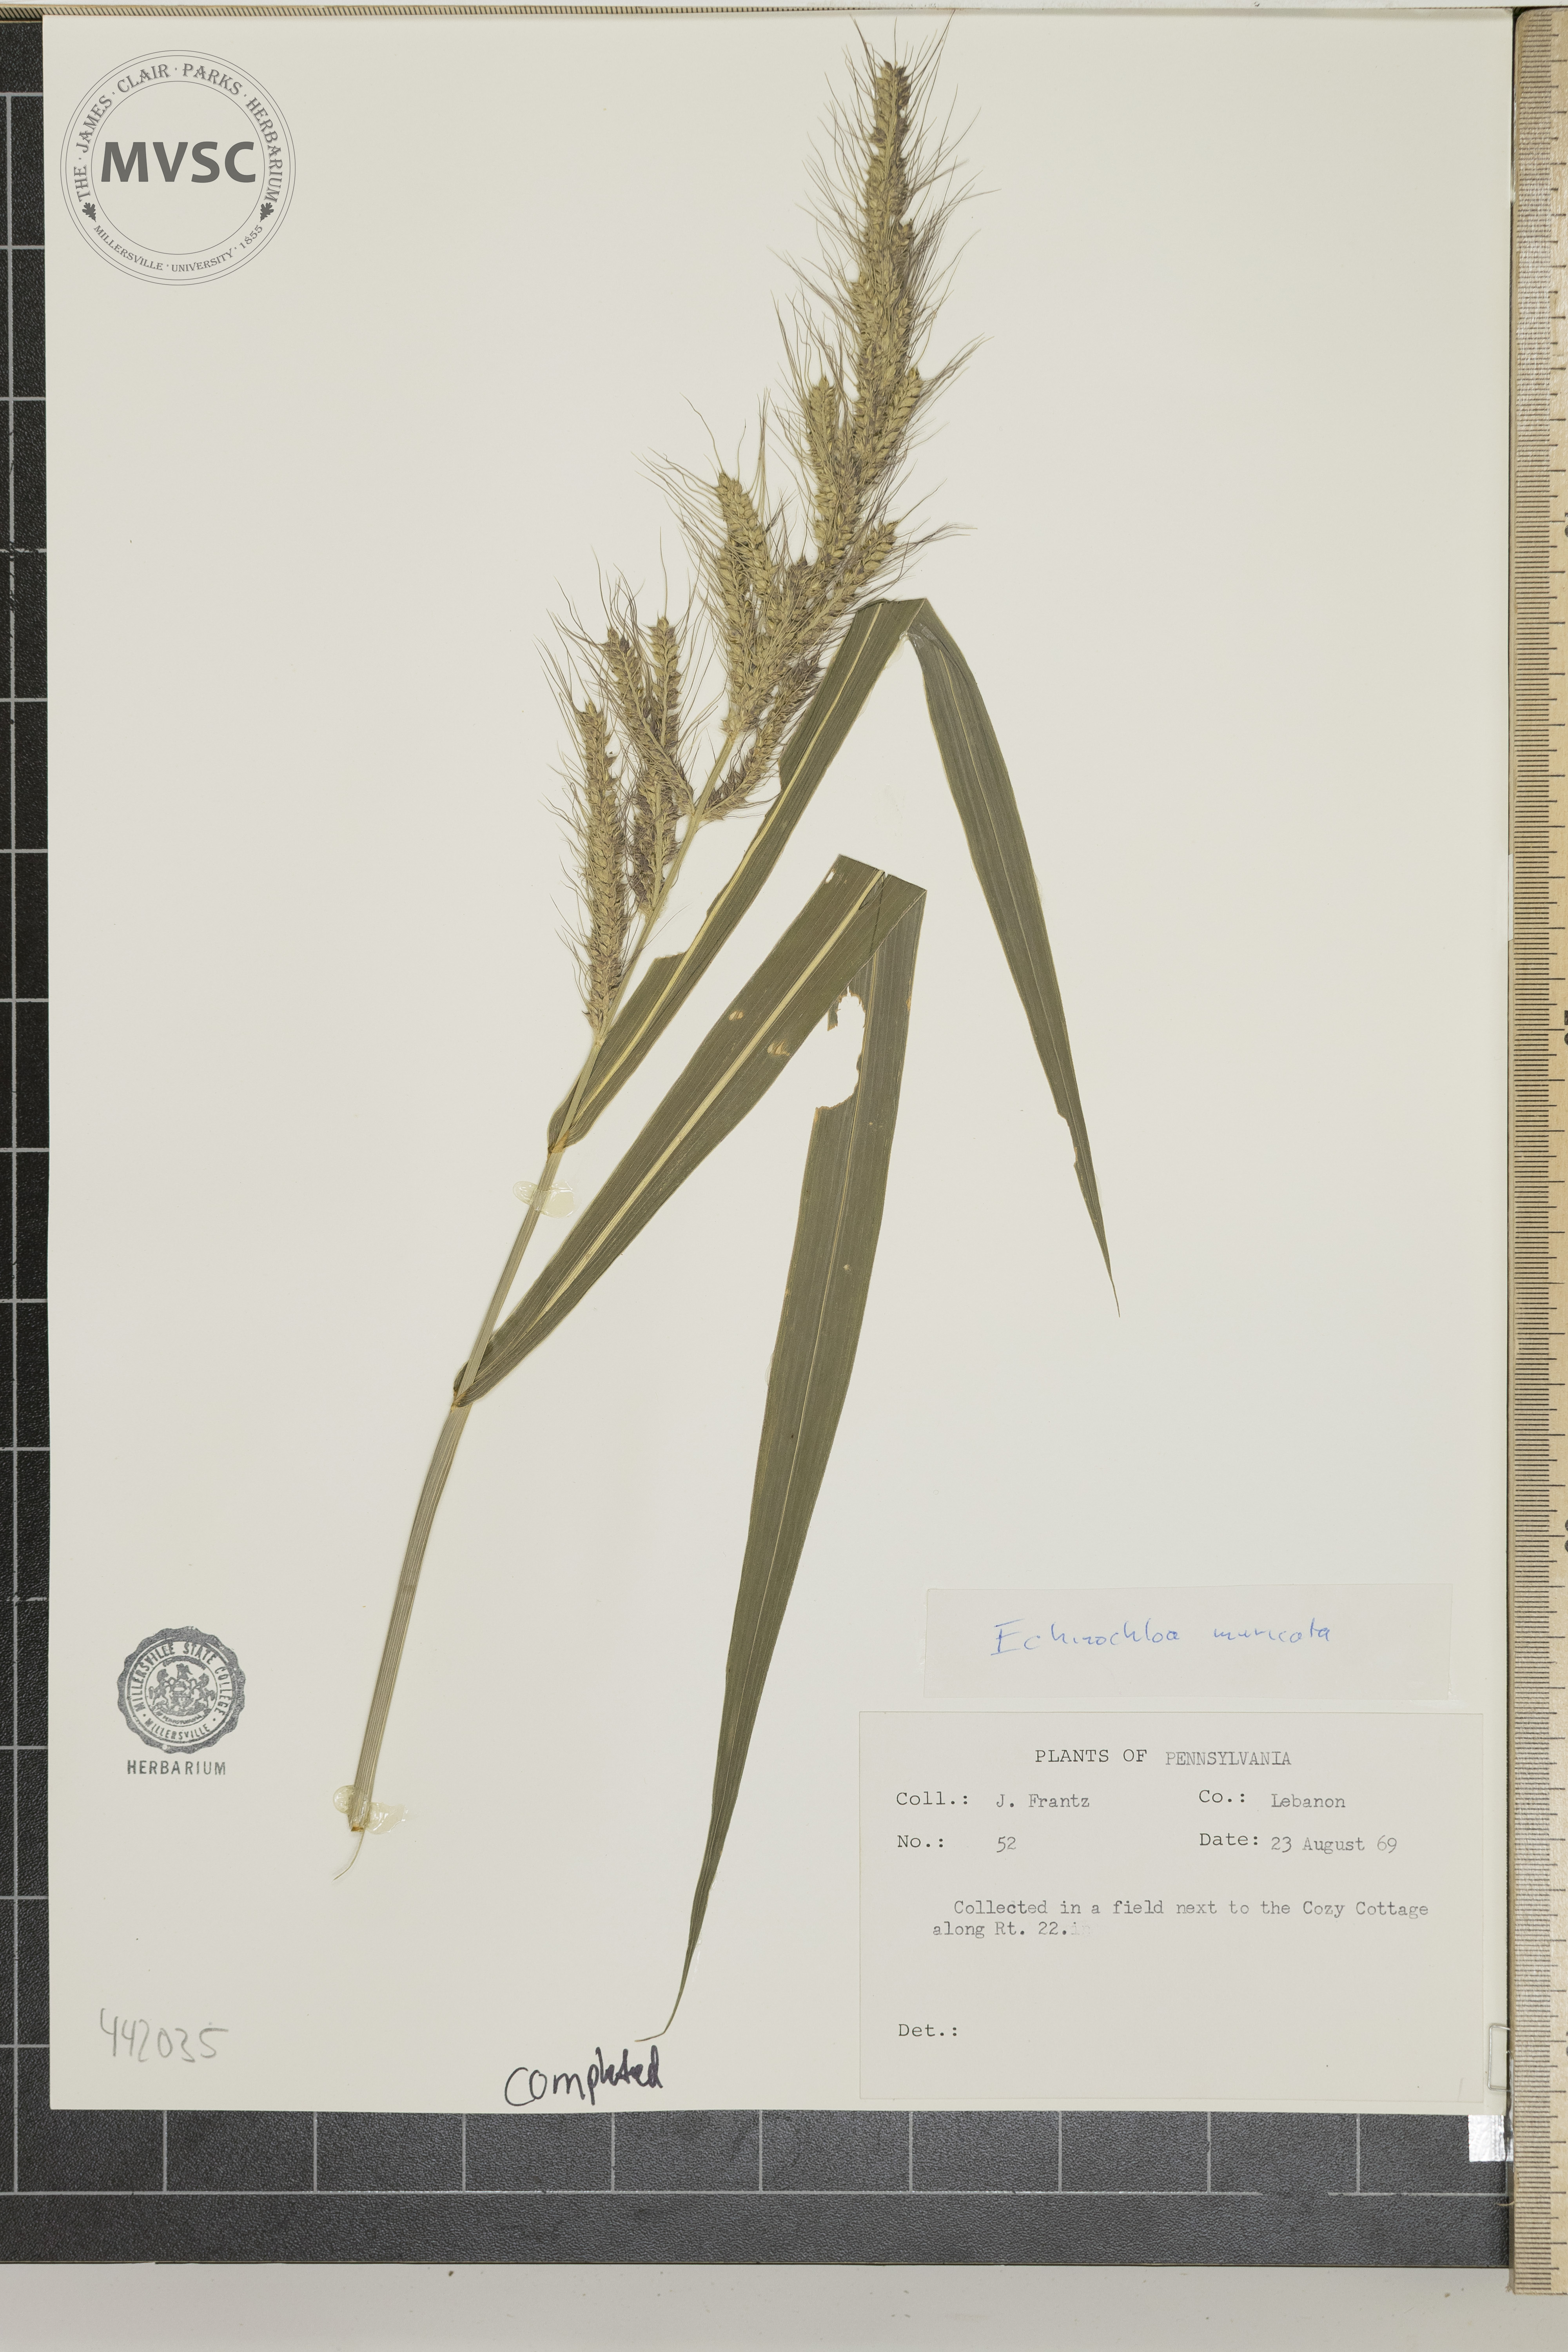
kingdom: Plantae
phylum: Tracheophyta
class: Liliopsida
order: Poales
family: Poaceae
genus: Echinochloa
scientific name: Echinochloa muricata
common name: American barnyard grass
